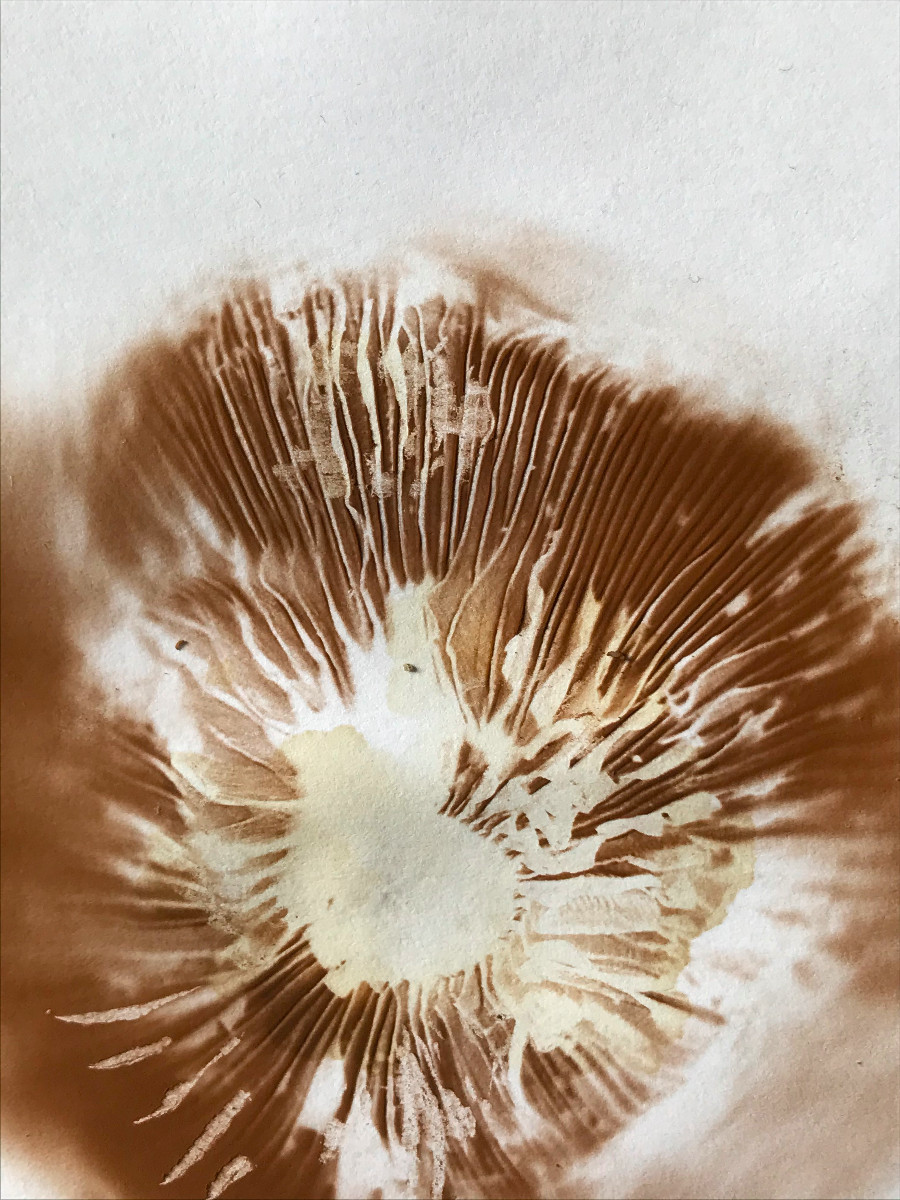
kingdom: Fungi
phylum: Basidiomycota
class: Agaricomycetes
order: Agaricales
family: Cortinariaceae
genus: Cortinarius
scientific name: Cortinarius
